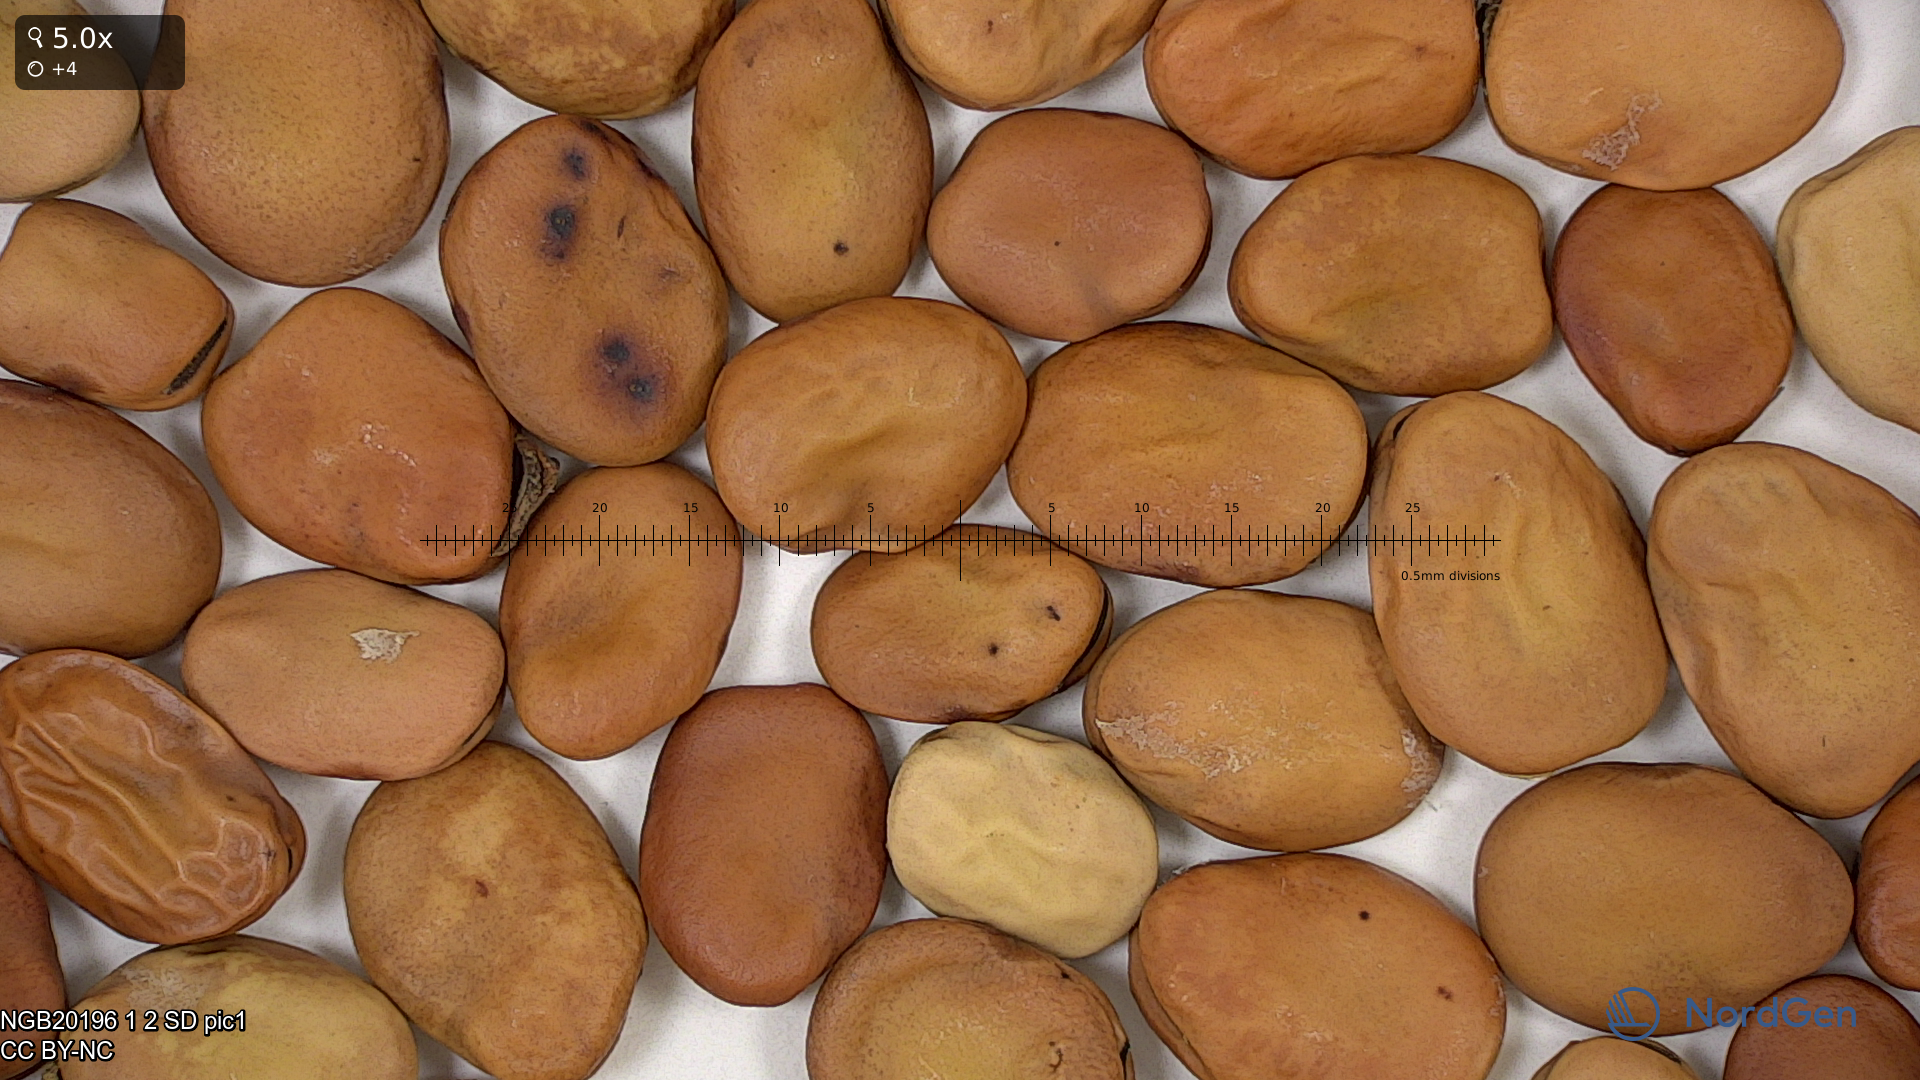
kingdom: Plantae
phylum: Tracheophyta
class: Magnoliopsida
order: Fabales
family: Fabaceae
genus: Vicia
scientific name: Vicia faba
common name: Broad bean
